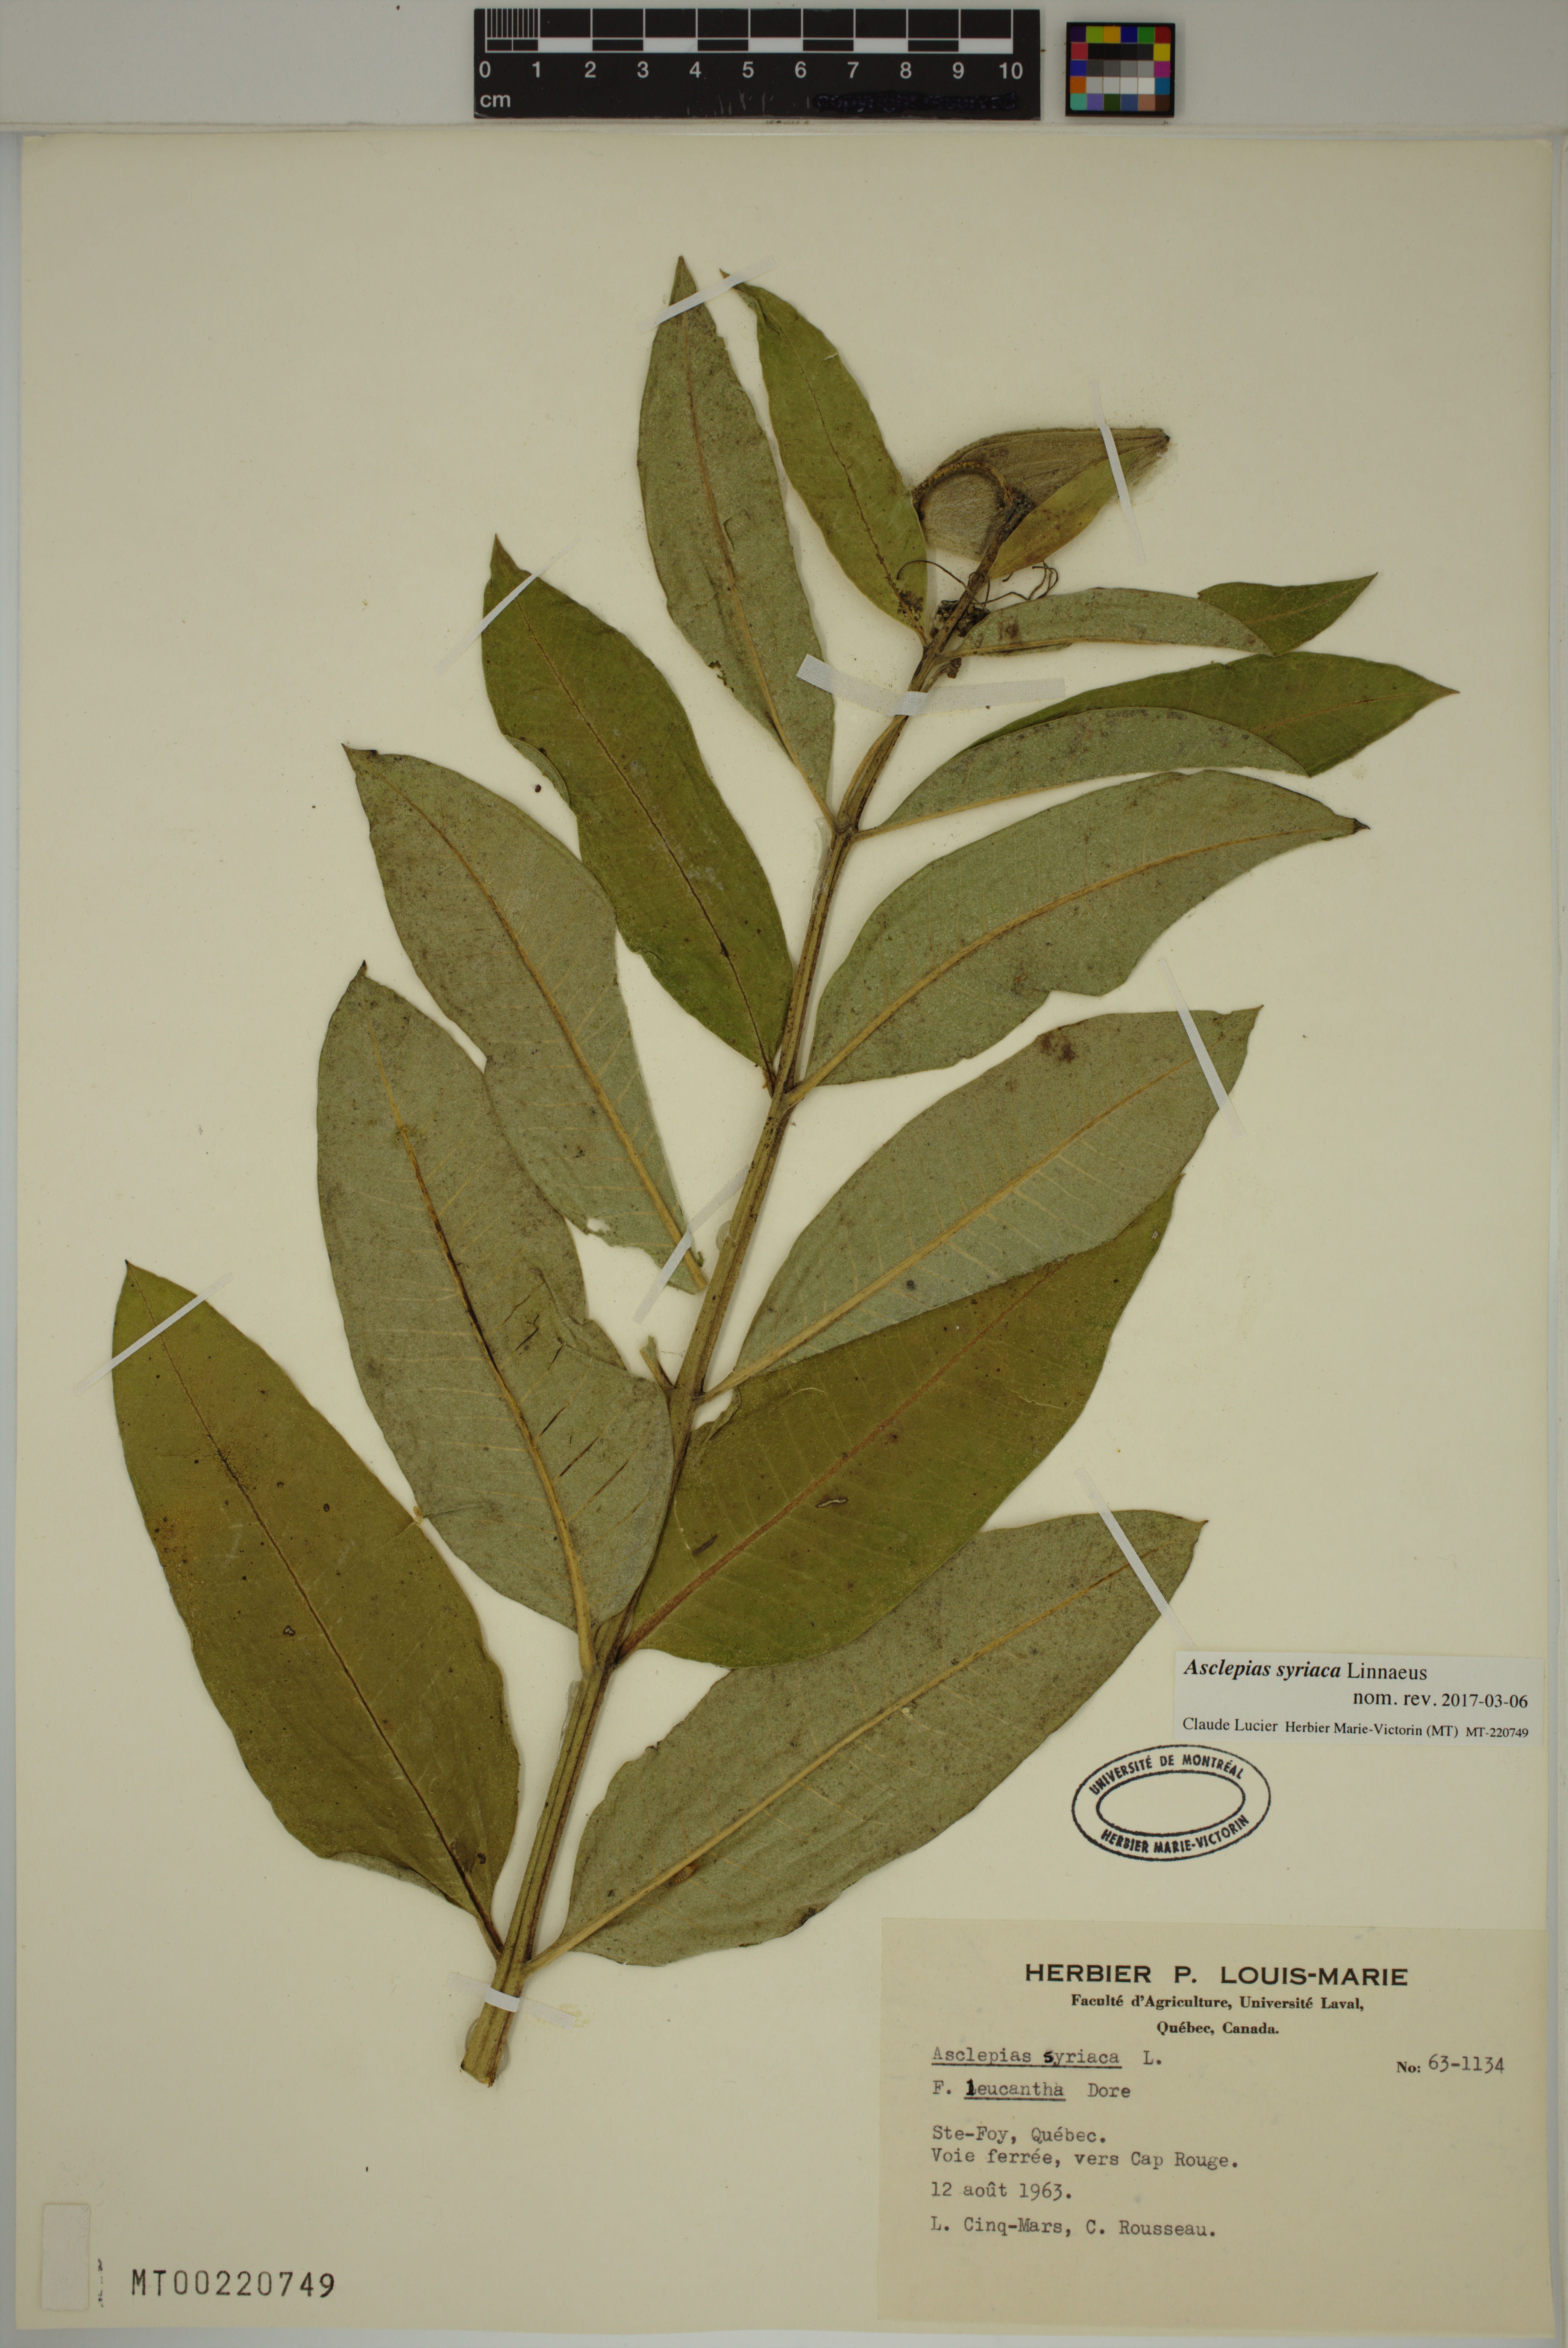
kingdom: Plantae
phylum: Tracheophyta
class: Magnoliopsida
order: Gentianales
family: Apocynaceae
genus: Asclepias
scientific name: Asclepias syriaca
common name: Common milkweed
